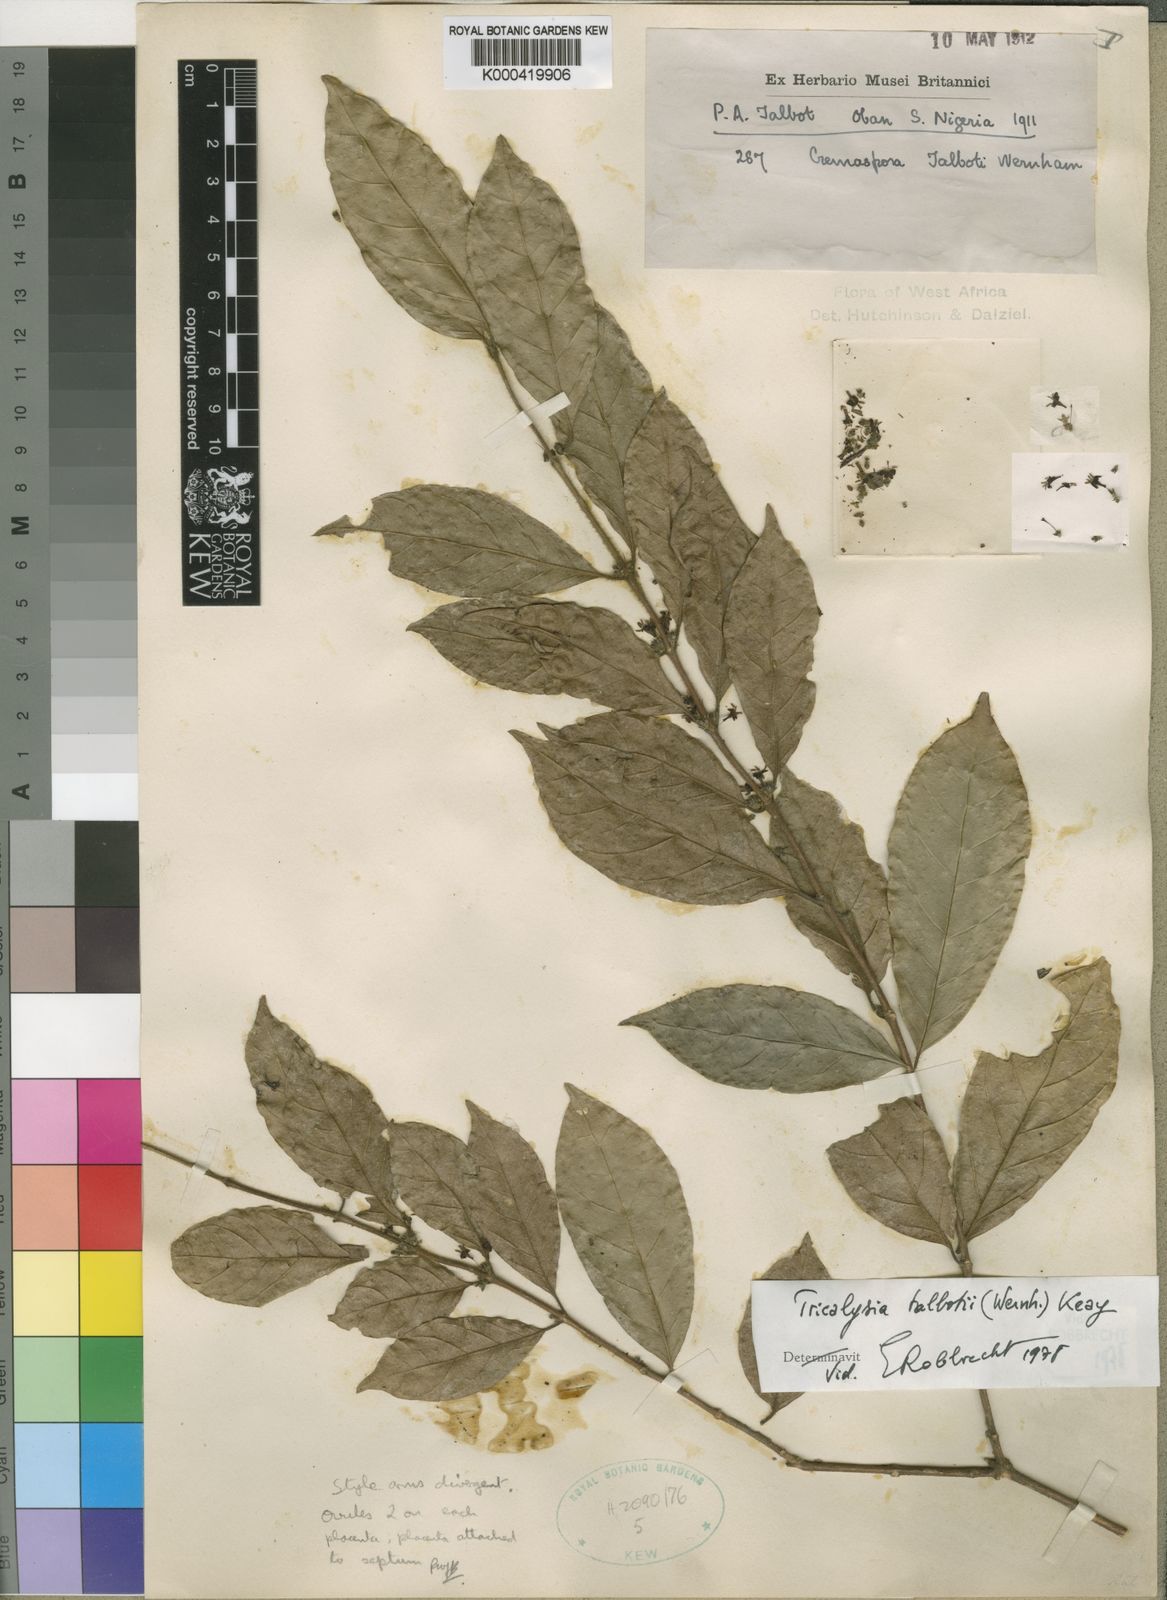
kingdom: Plantae
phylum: Tracheophyta
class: Magnoliopsida
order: Gentianales
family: Rubiaceae
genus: Empogona
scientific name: Empogona talbotii
